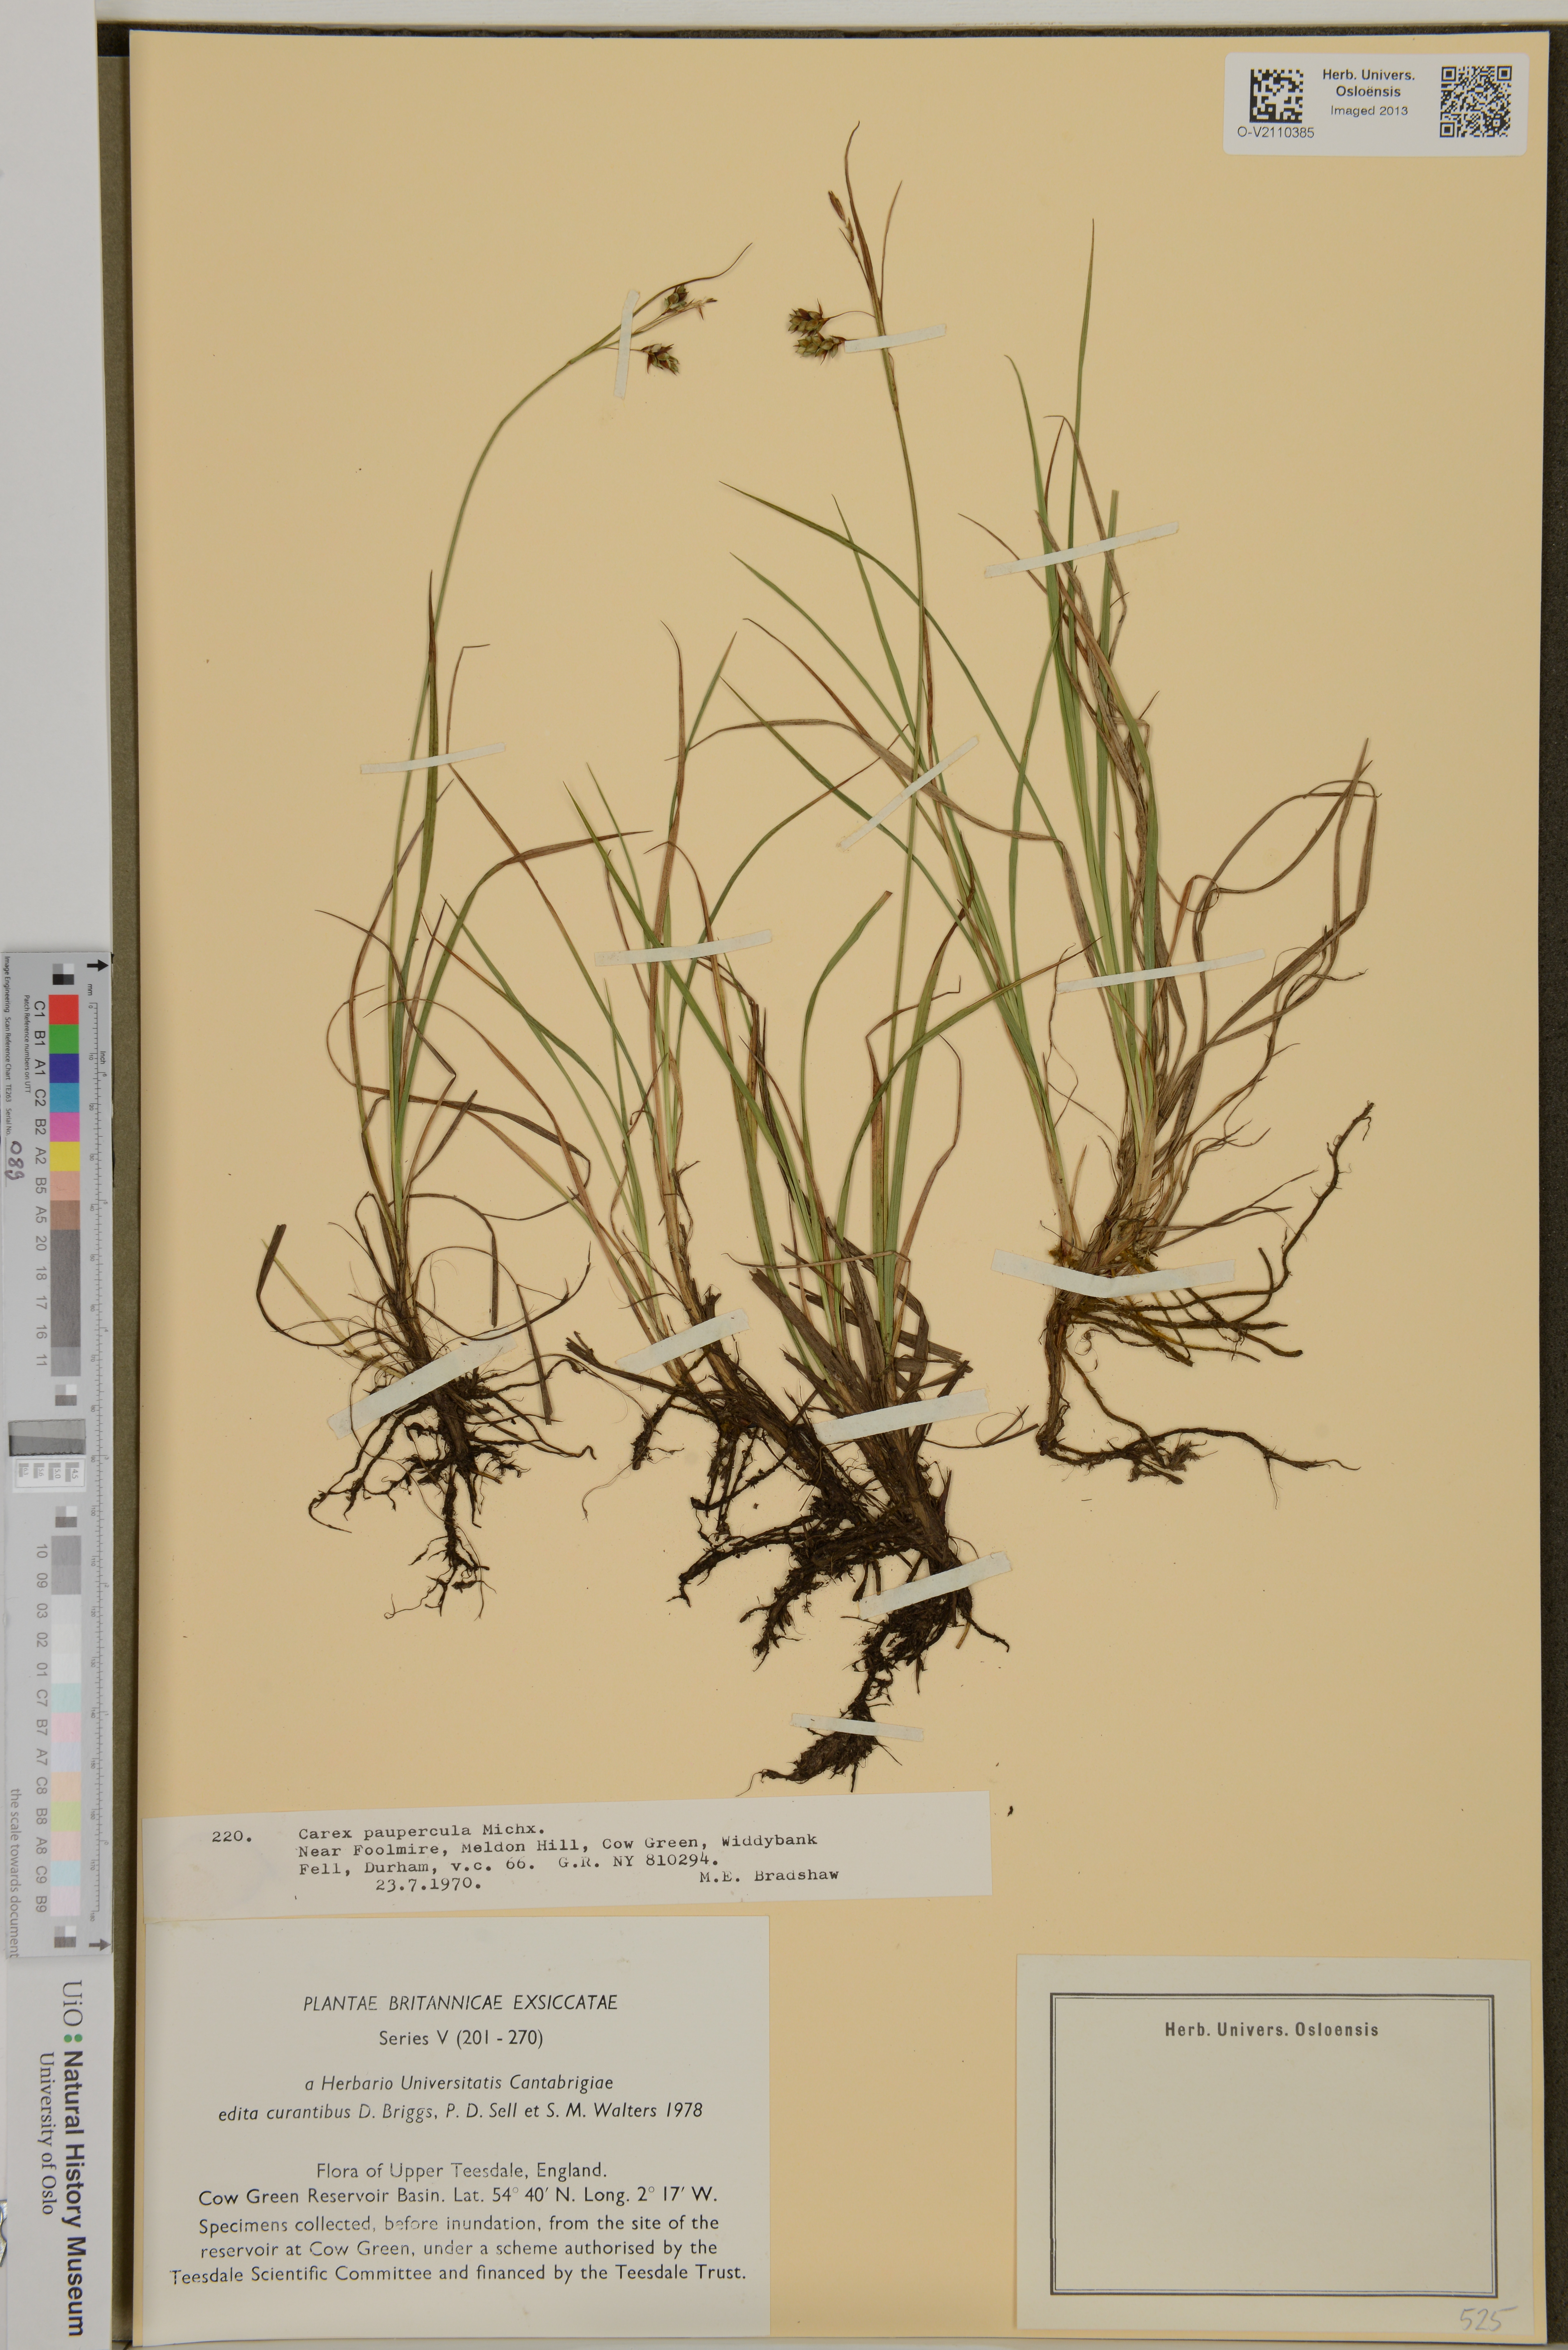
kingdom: Plantae
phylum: Tracheophyta
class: Liliopsida
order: Poales
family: Cyperaceae
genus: Carex
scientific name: Carex magellanica
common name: Bog sedge
